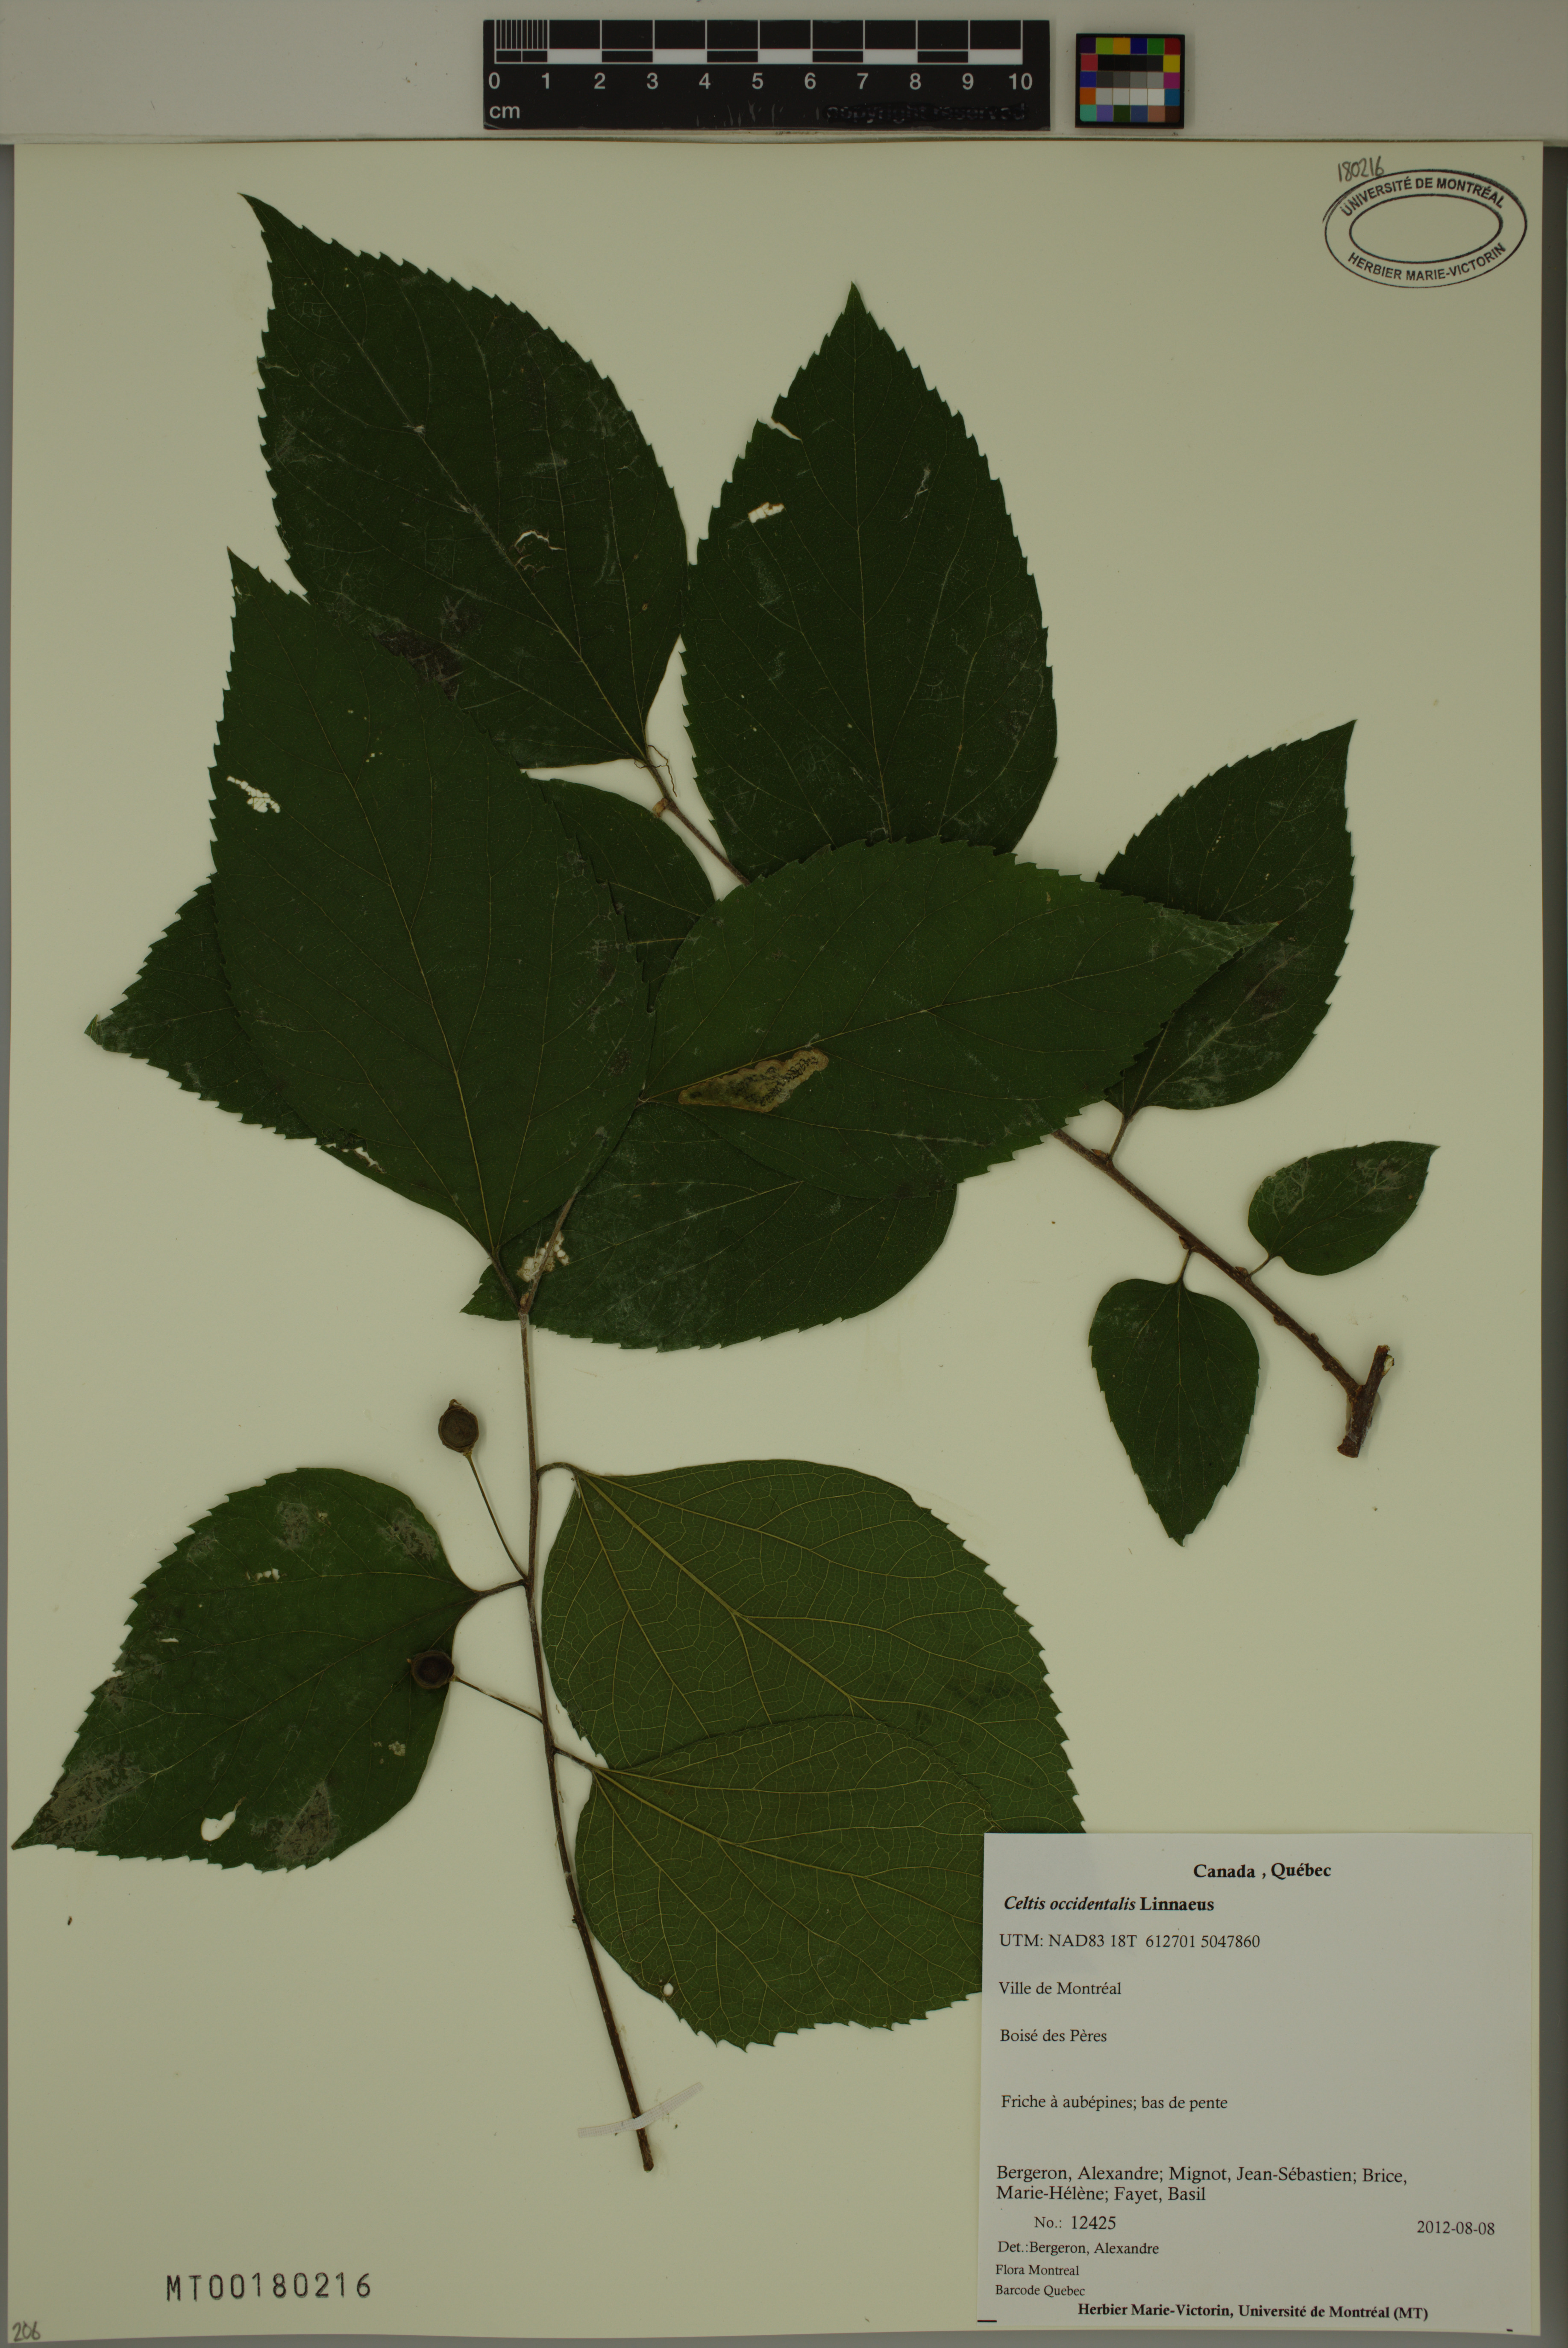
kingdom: Plantae
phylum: Tracheophyta
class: Magnoliopsida
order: Rosales
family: Cannabaceae
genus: Celtis
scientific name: Celtis occidentalis
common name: Common hackberry
